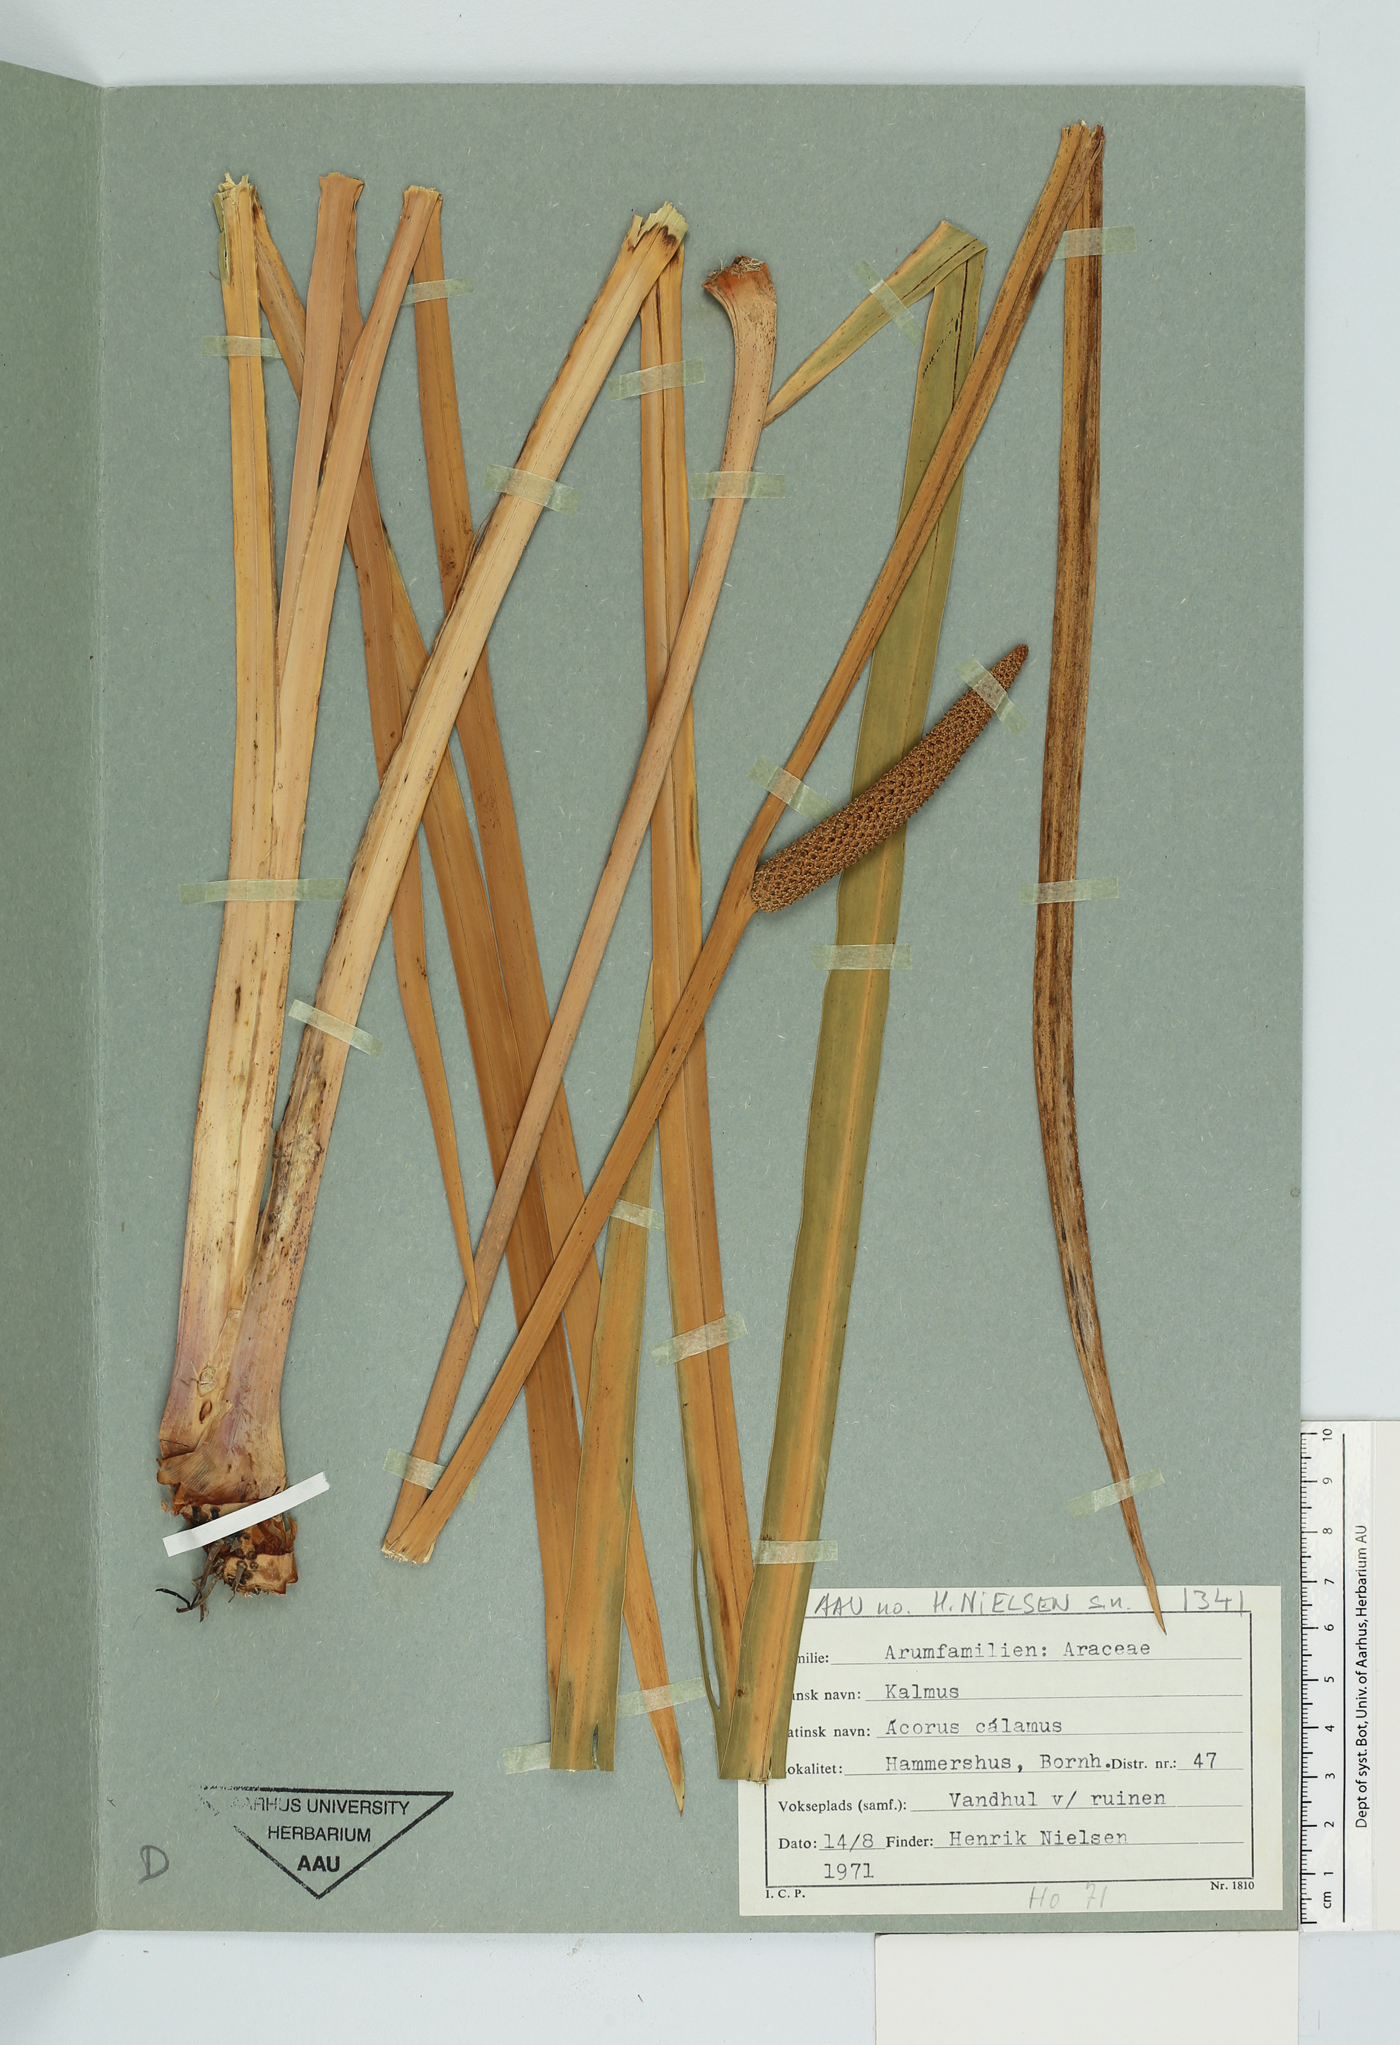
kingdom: Plantae
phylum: Tracheophyta
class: Liliopsida
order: Acorales
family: Acoraceae
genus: Acorus
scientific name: Acorus calamus
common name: Sweet-flag
